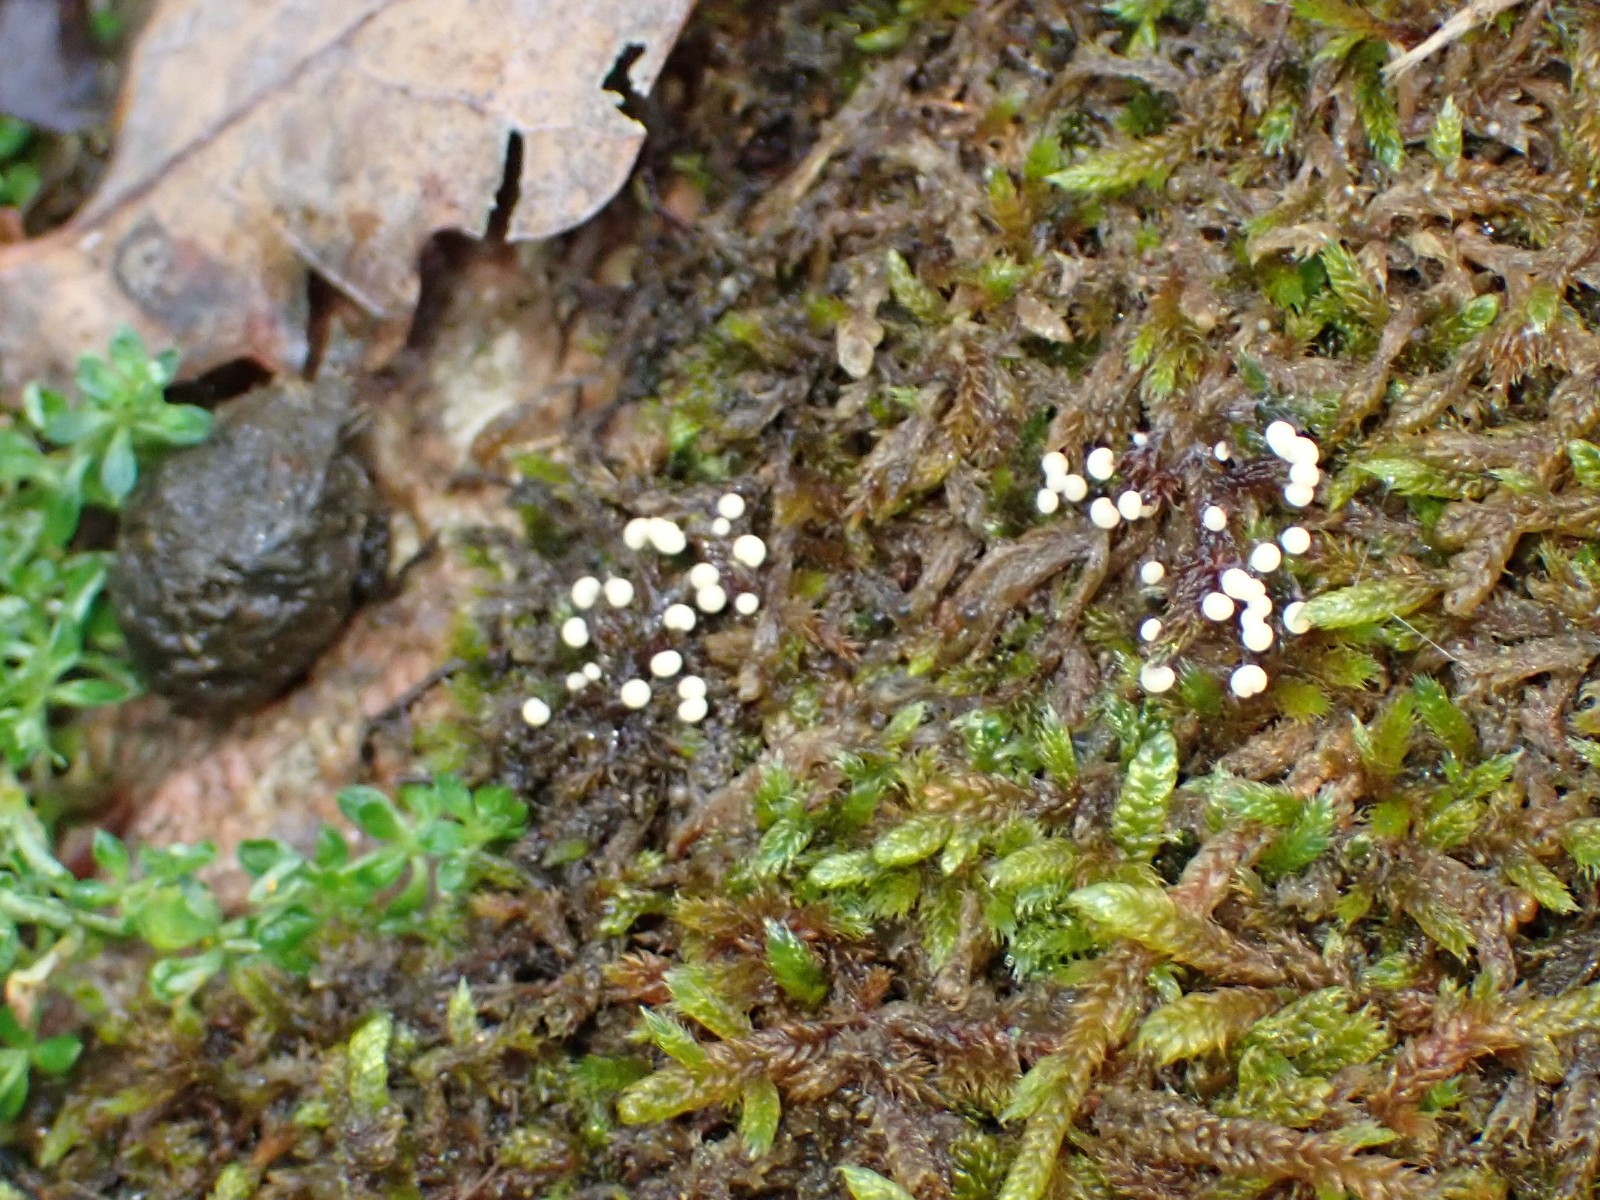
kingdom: Protozoa
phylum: Mycetozoa
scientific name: Mycetozoa
